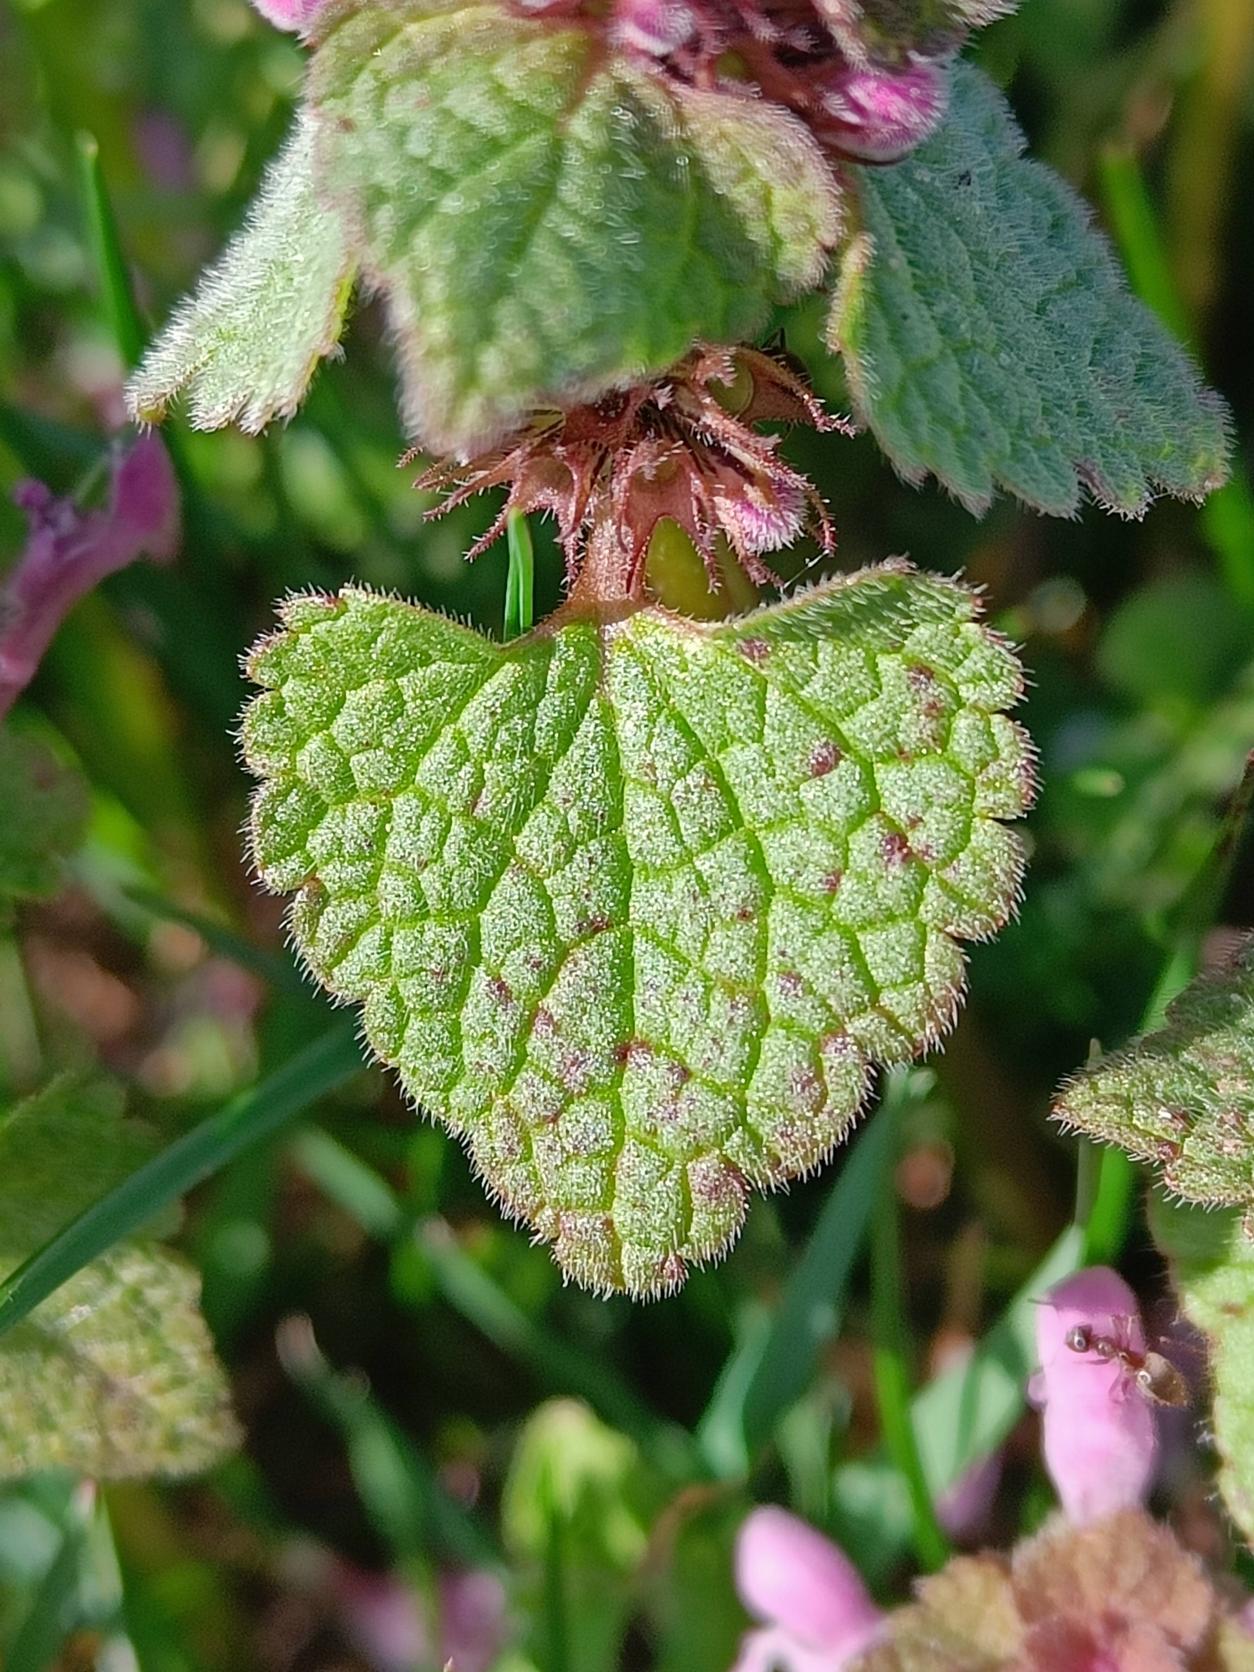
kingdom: Plantae
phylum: Tracheophyta
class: Magnoliopsida
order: Lamiales
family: Lamiaceae
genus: Lamium
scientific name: Lamium purpureum
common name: Rød tvetand
